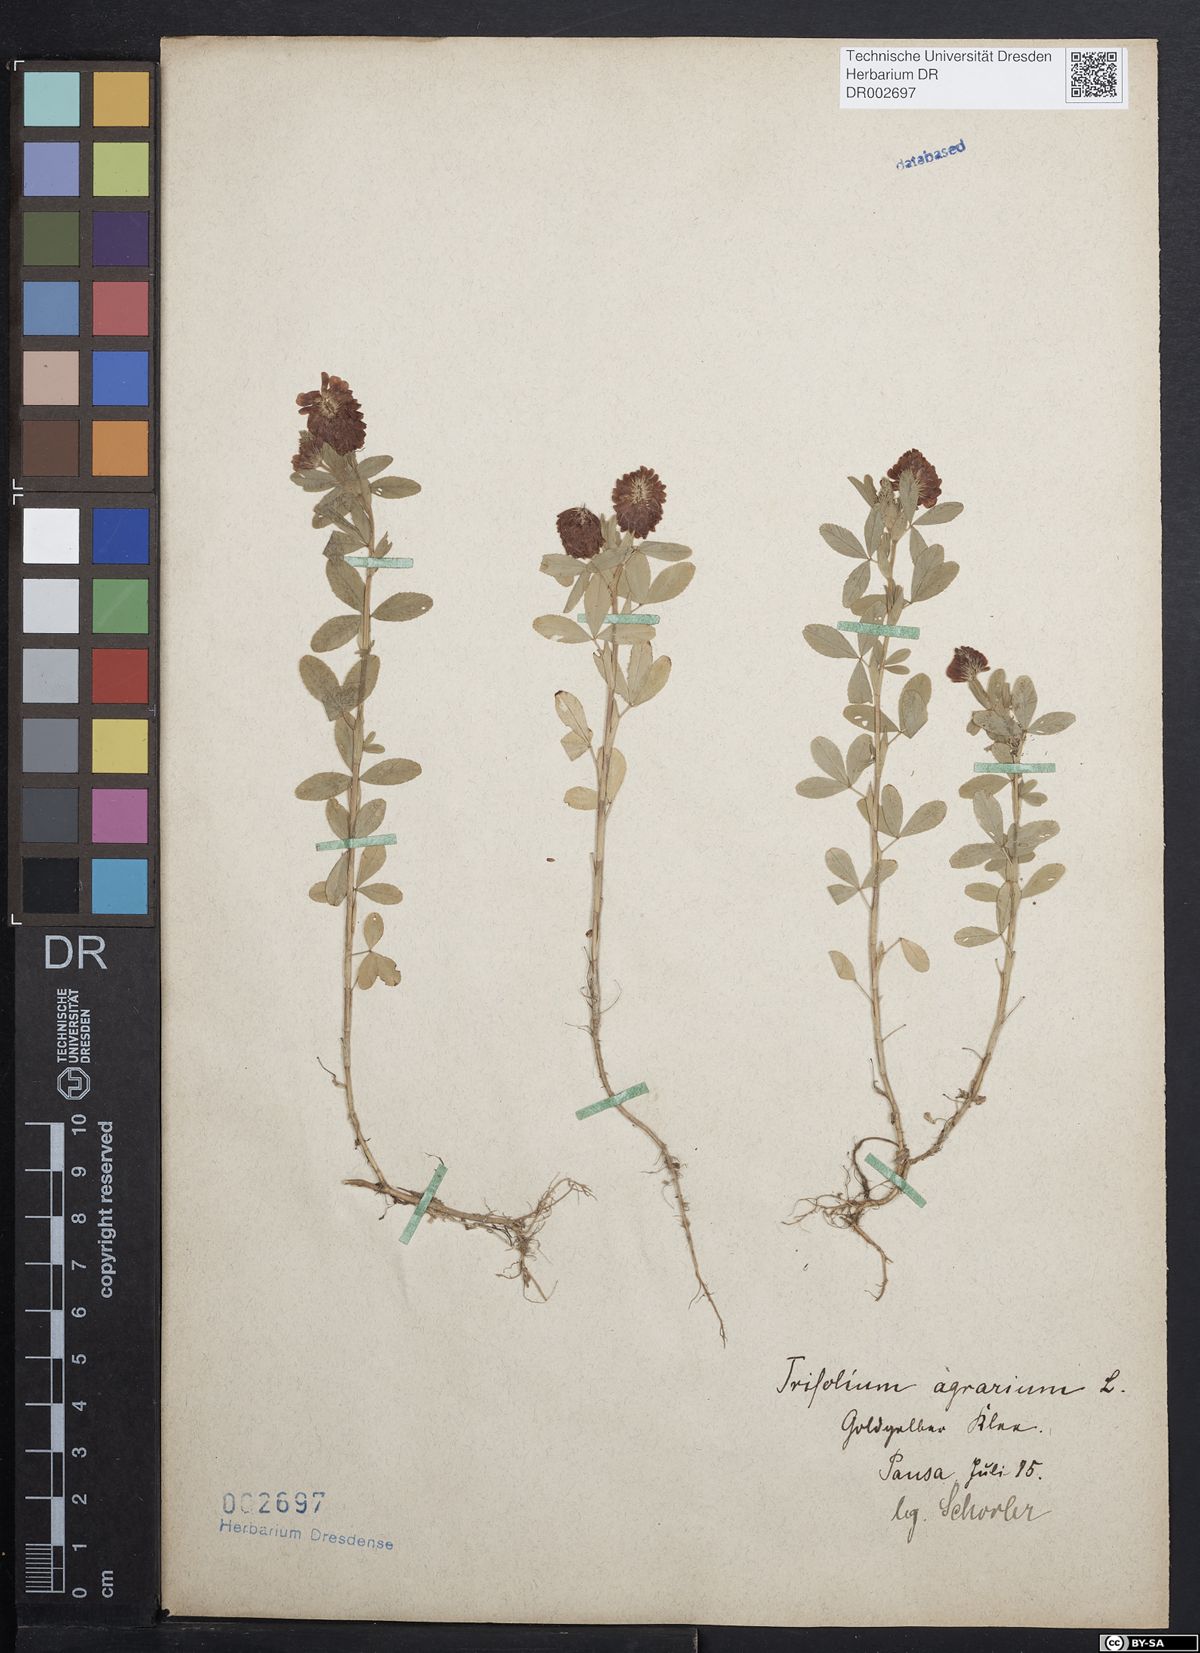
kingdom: Plantae
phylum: Tracheophyta
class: Magnoliopsida
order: Fabales
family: Fabaceae
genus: Trifolium
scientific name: Trifolium aureum
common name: Golden clover
